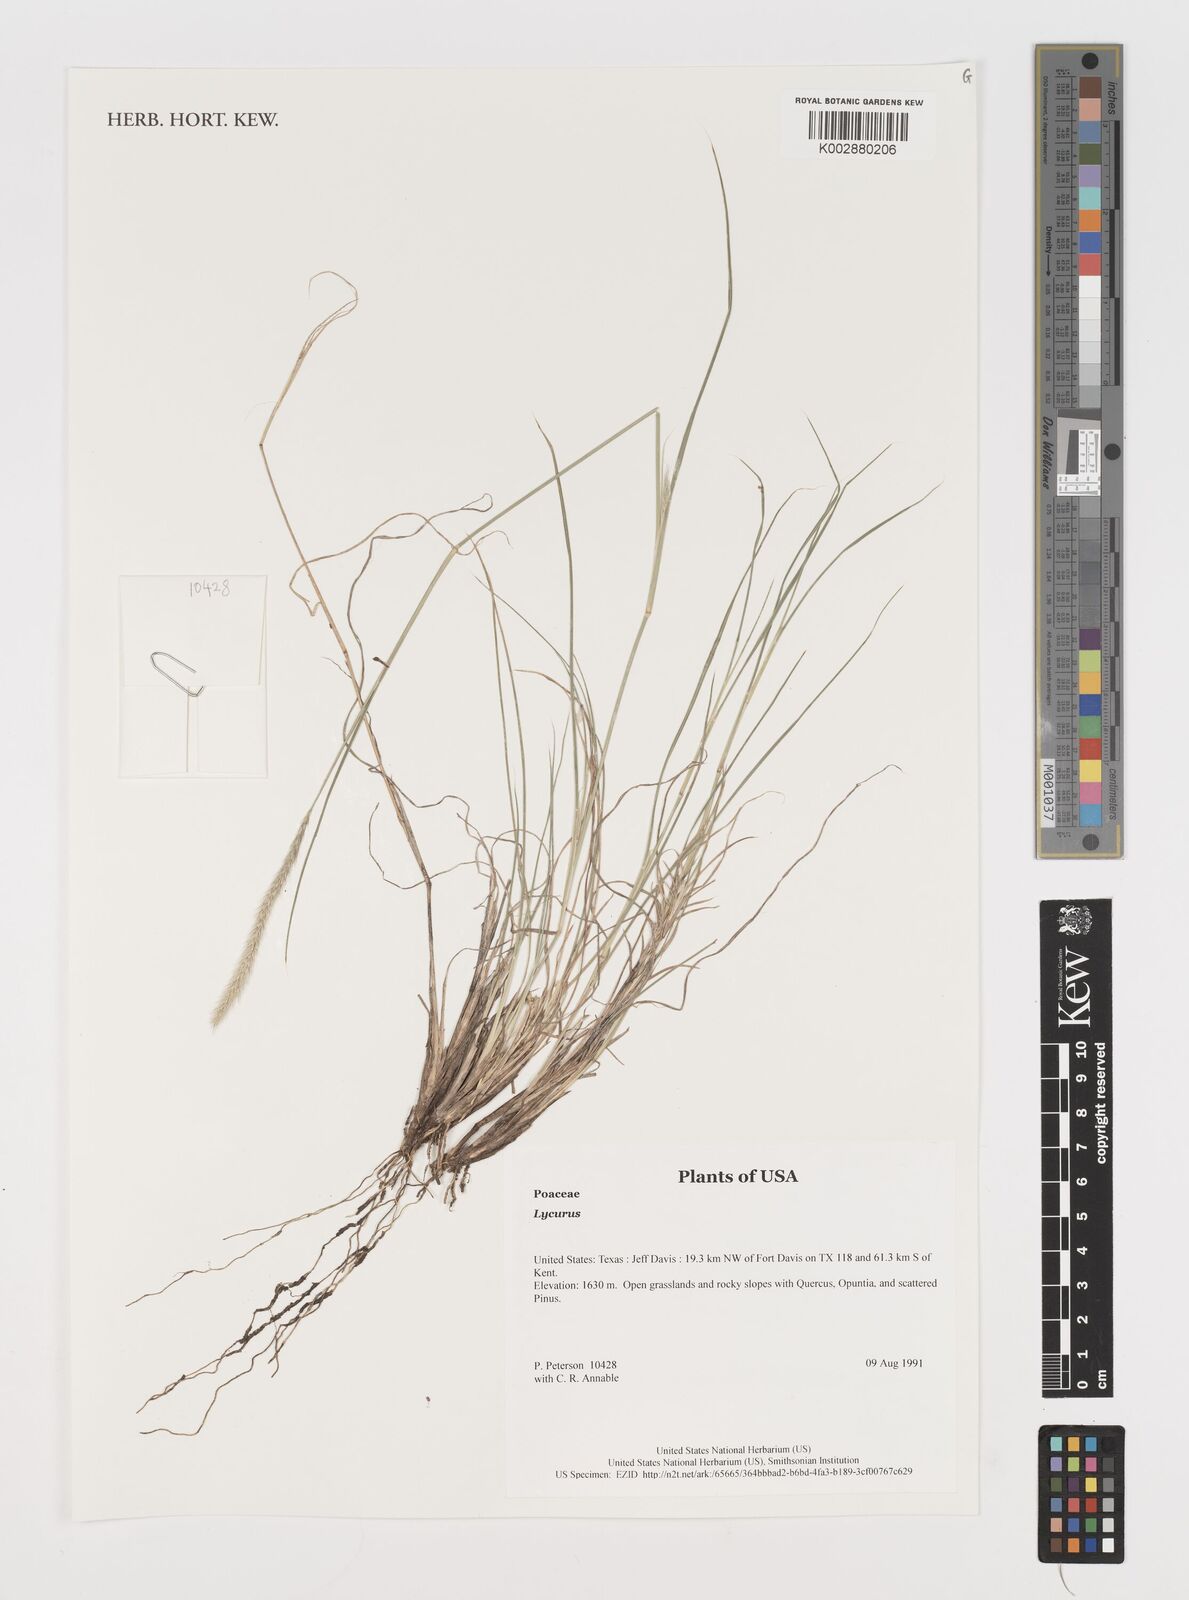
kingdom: Plantae
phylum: Tracheophyta
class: Liliopsida
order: Poales
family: Poaceae
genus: Muhlenbergia
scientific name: Muhlenbergia
